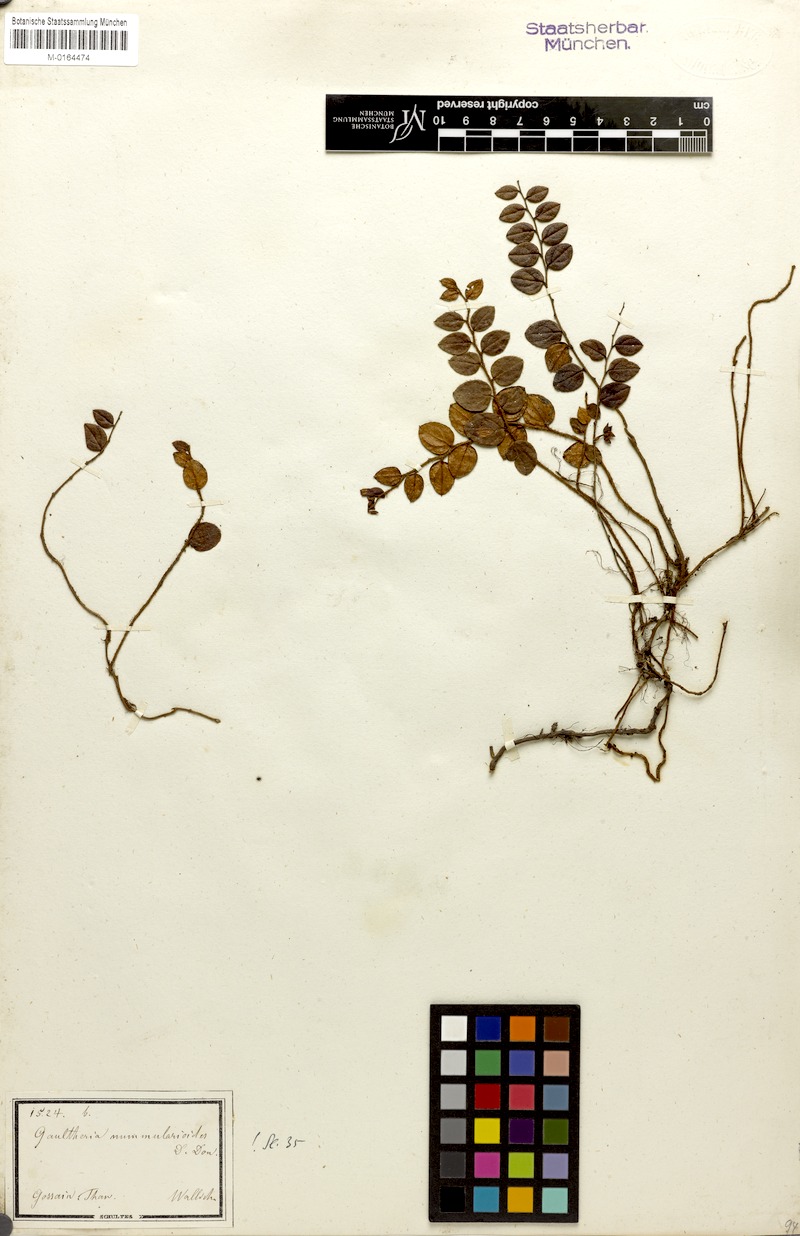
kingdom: Plantae
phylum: Tracheophyta
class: Magnoliopsida
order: Ericales
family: Ericaceae
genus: Gaultheria
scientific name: Gaultheria nummularioides
